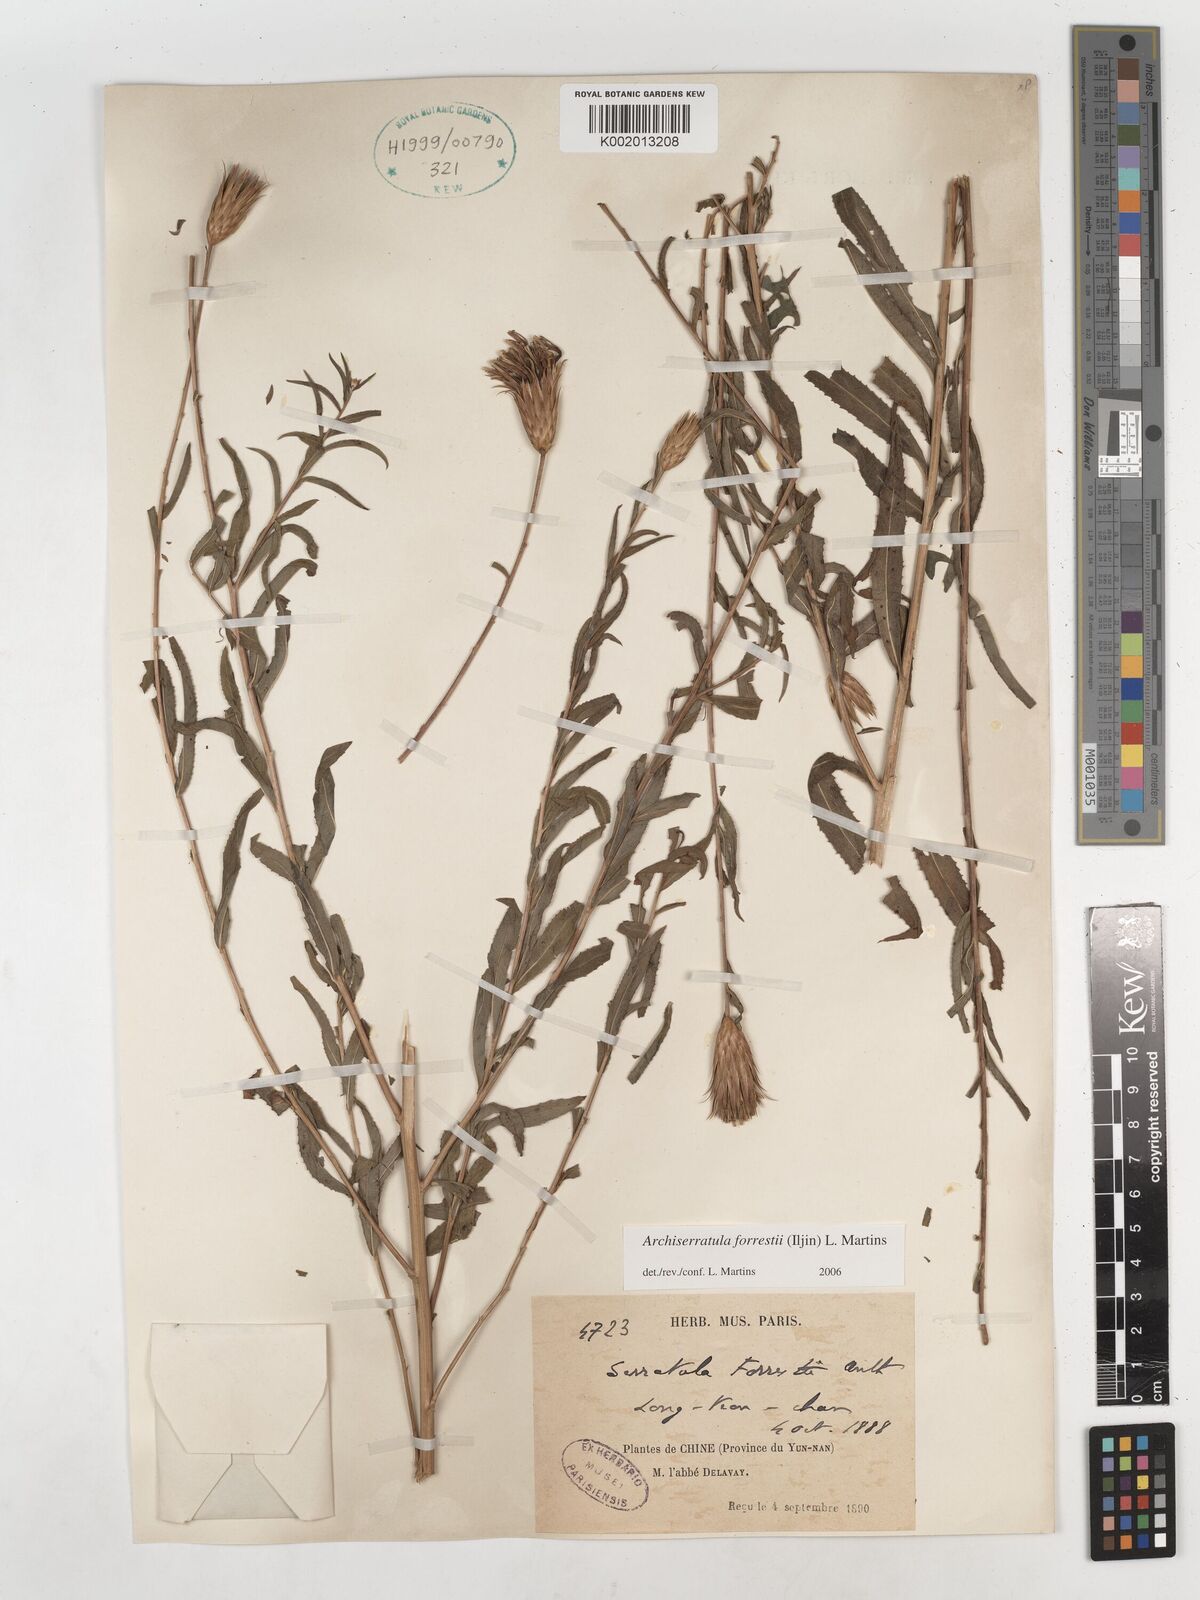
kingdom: Plantae
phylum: Tracheophyta
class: Magnoliopsida
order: Asterales
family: Asteraceae
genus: Archiserratula
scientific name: Archiserratula forrestii
